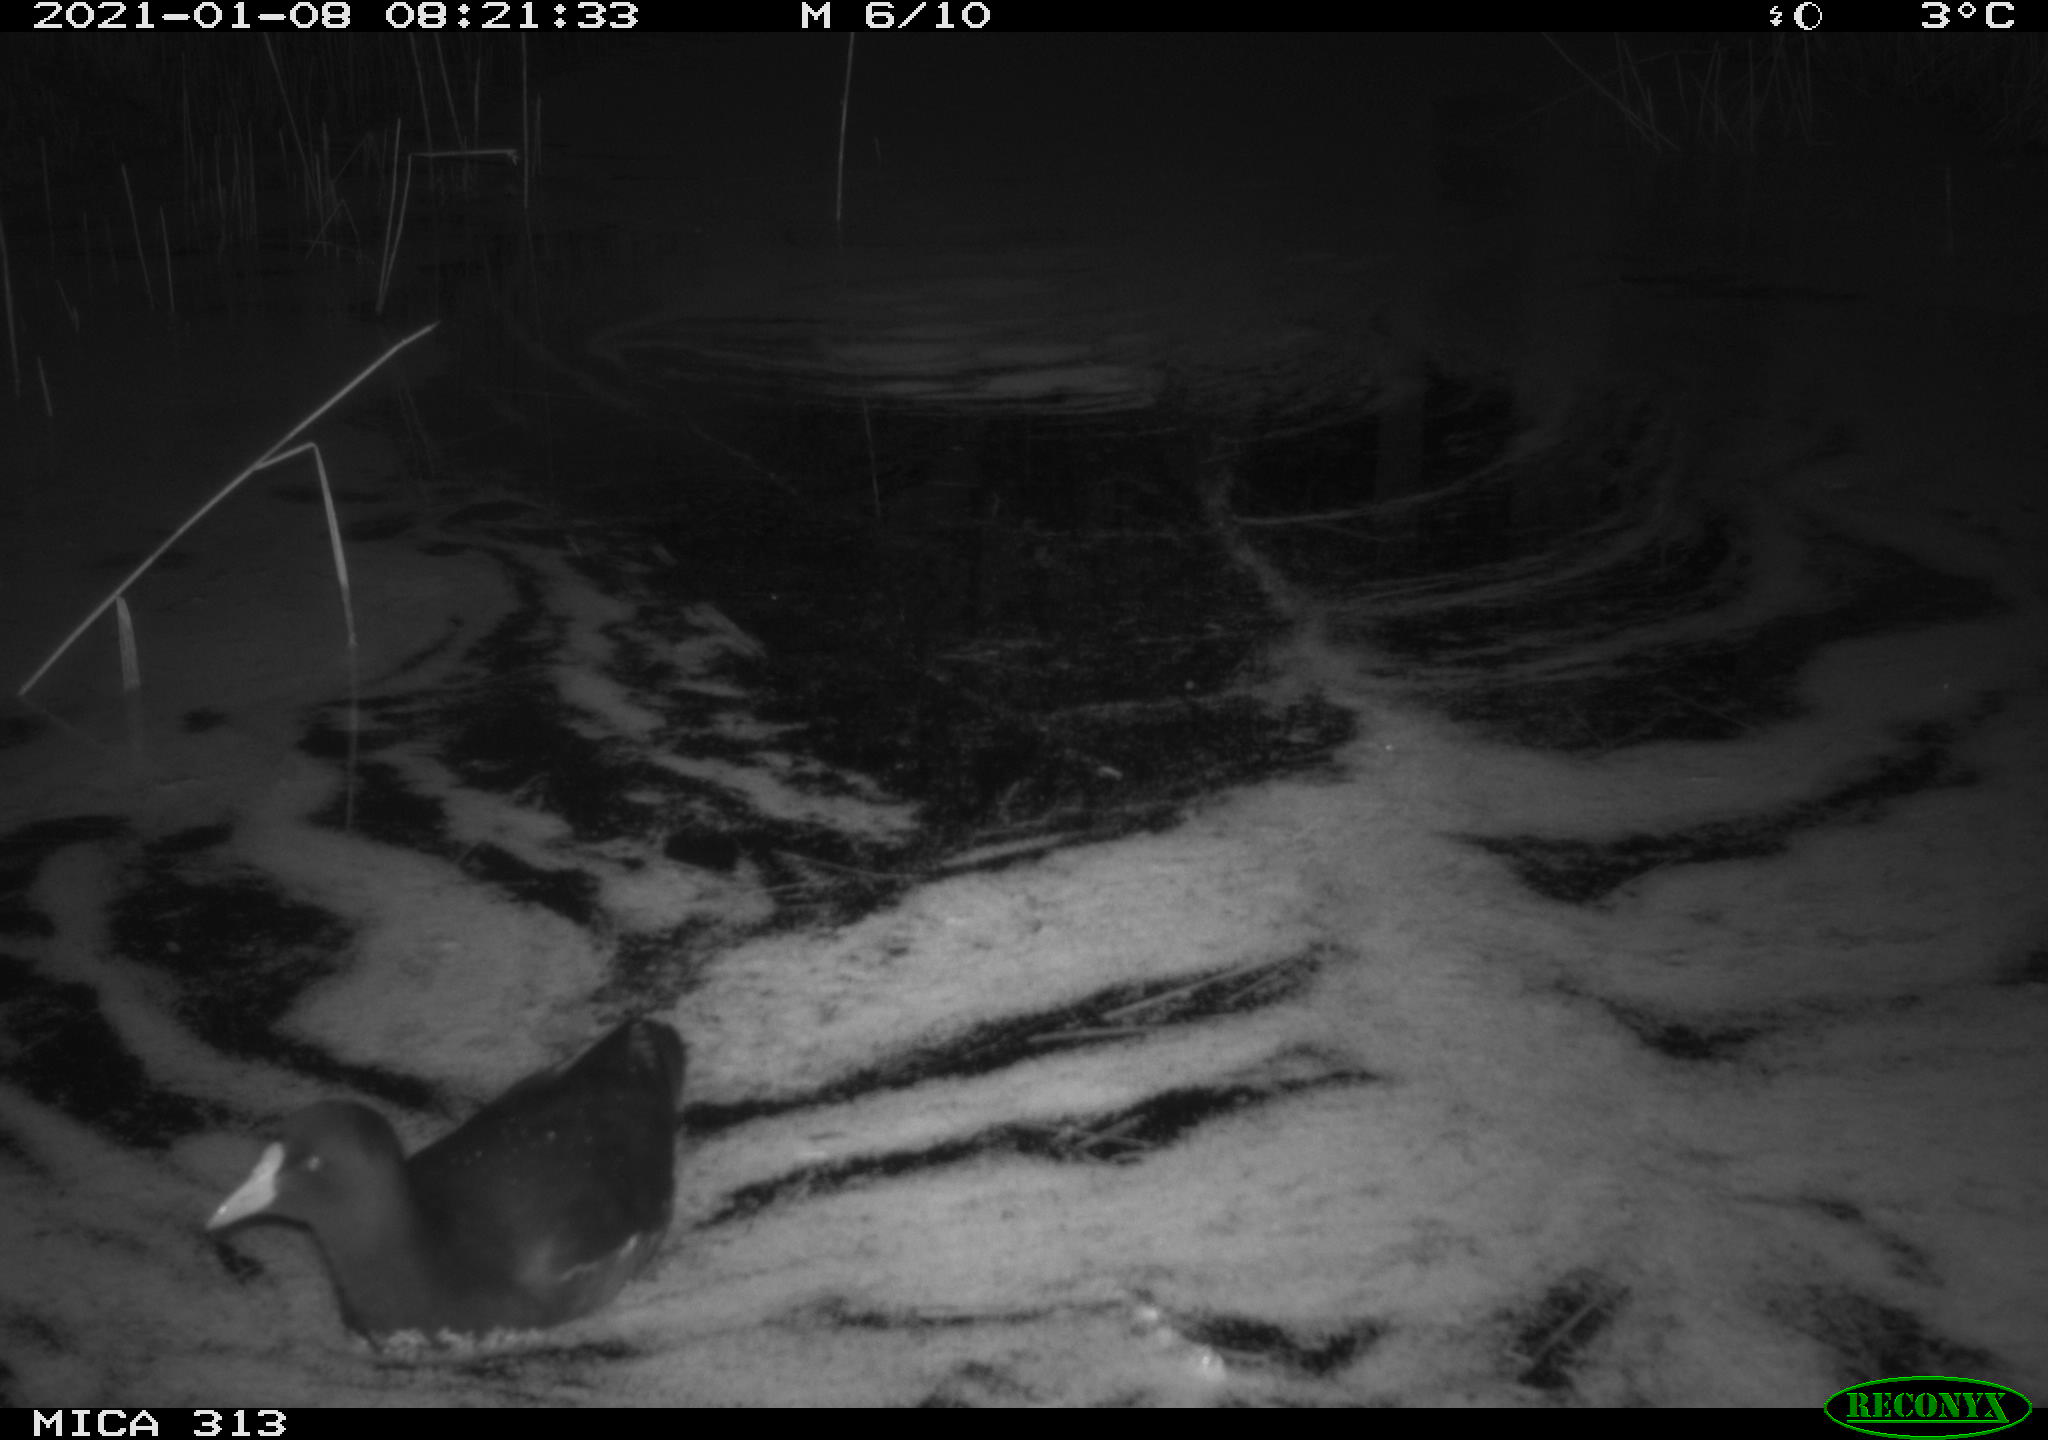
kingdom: Animalia
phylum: Chordata
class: Aves
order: Gruiformes
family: Rallidae
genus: Gallinula
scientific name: Gallinula chloropus
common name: Common moorhen
